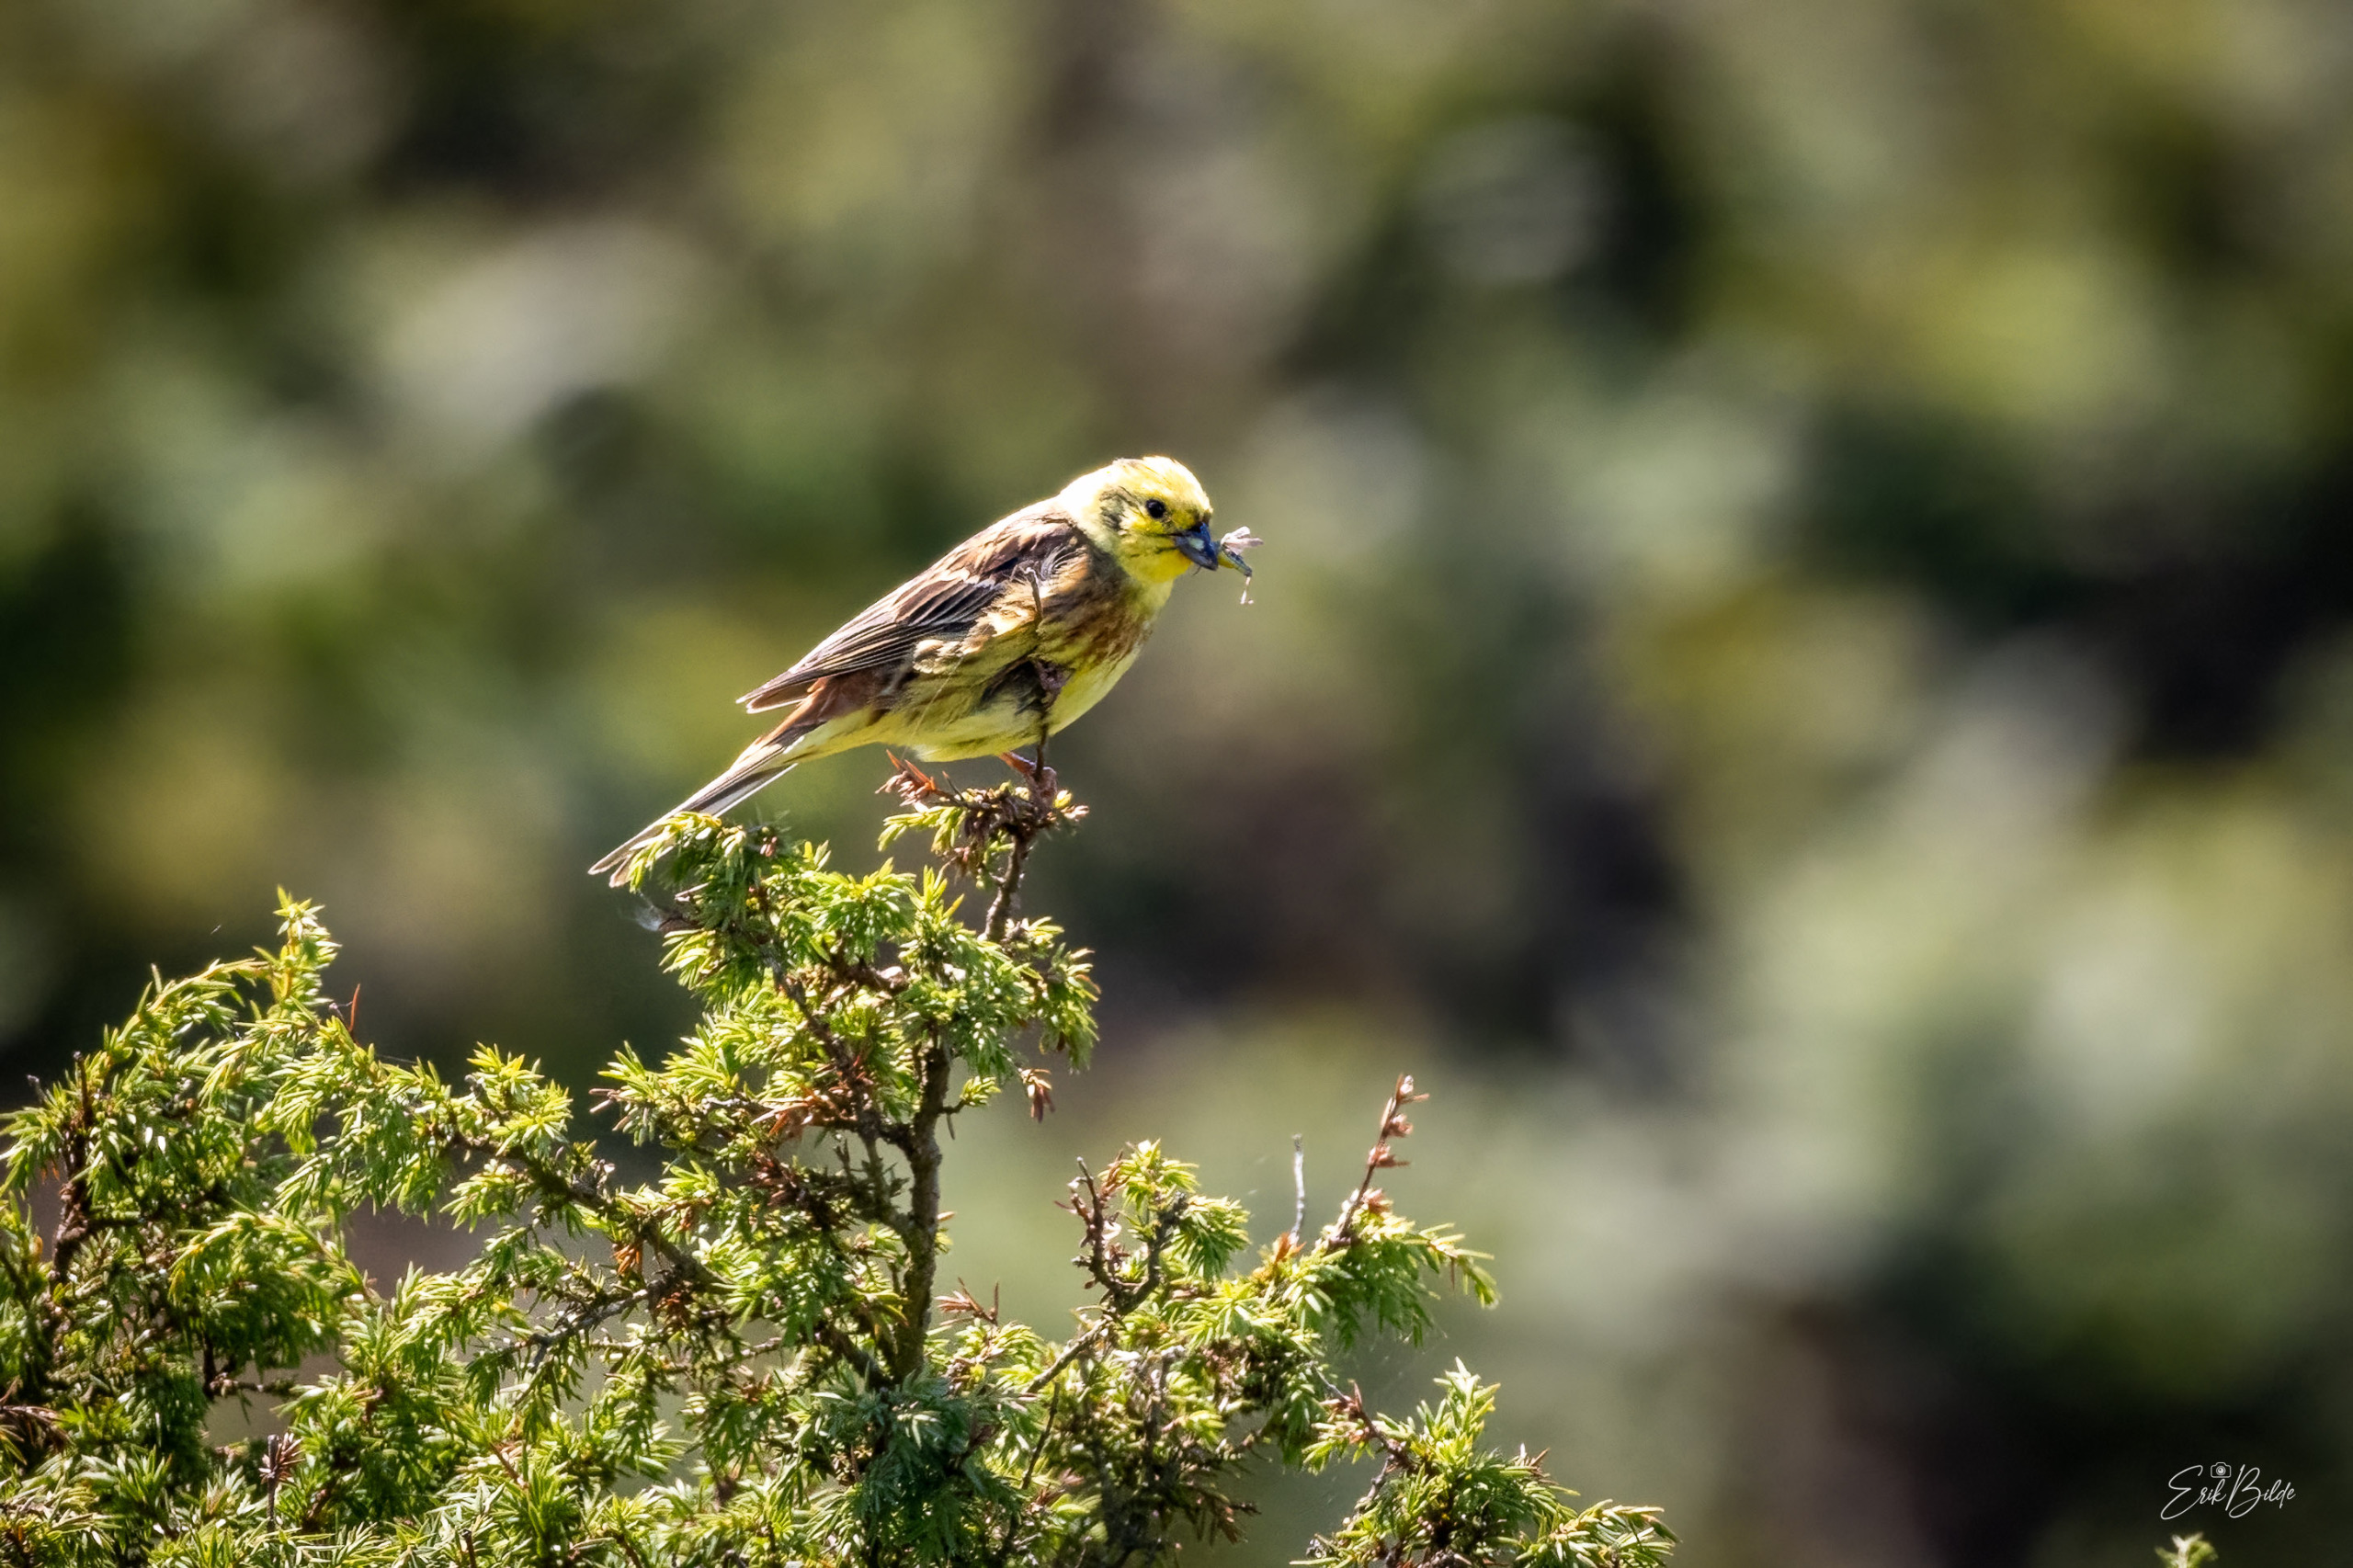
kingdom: Animalia
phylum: Chordata
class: Aves
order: Passeriformes
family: Emberizidae
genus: Emberiza
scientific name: Emberiza citrinella
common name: Gulspurv
